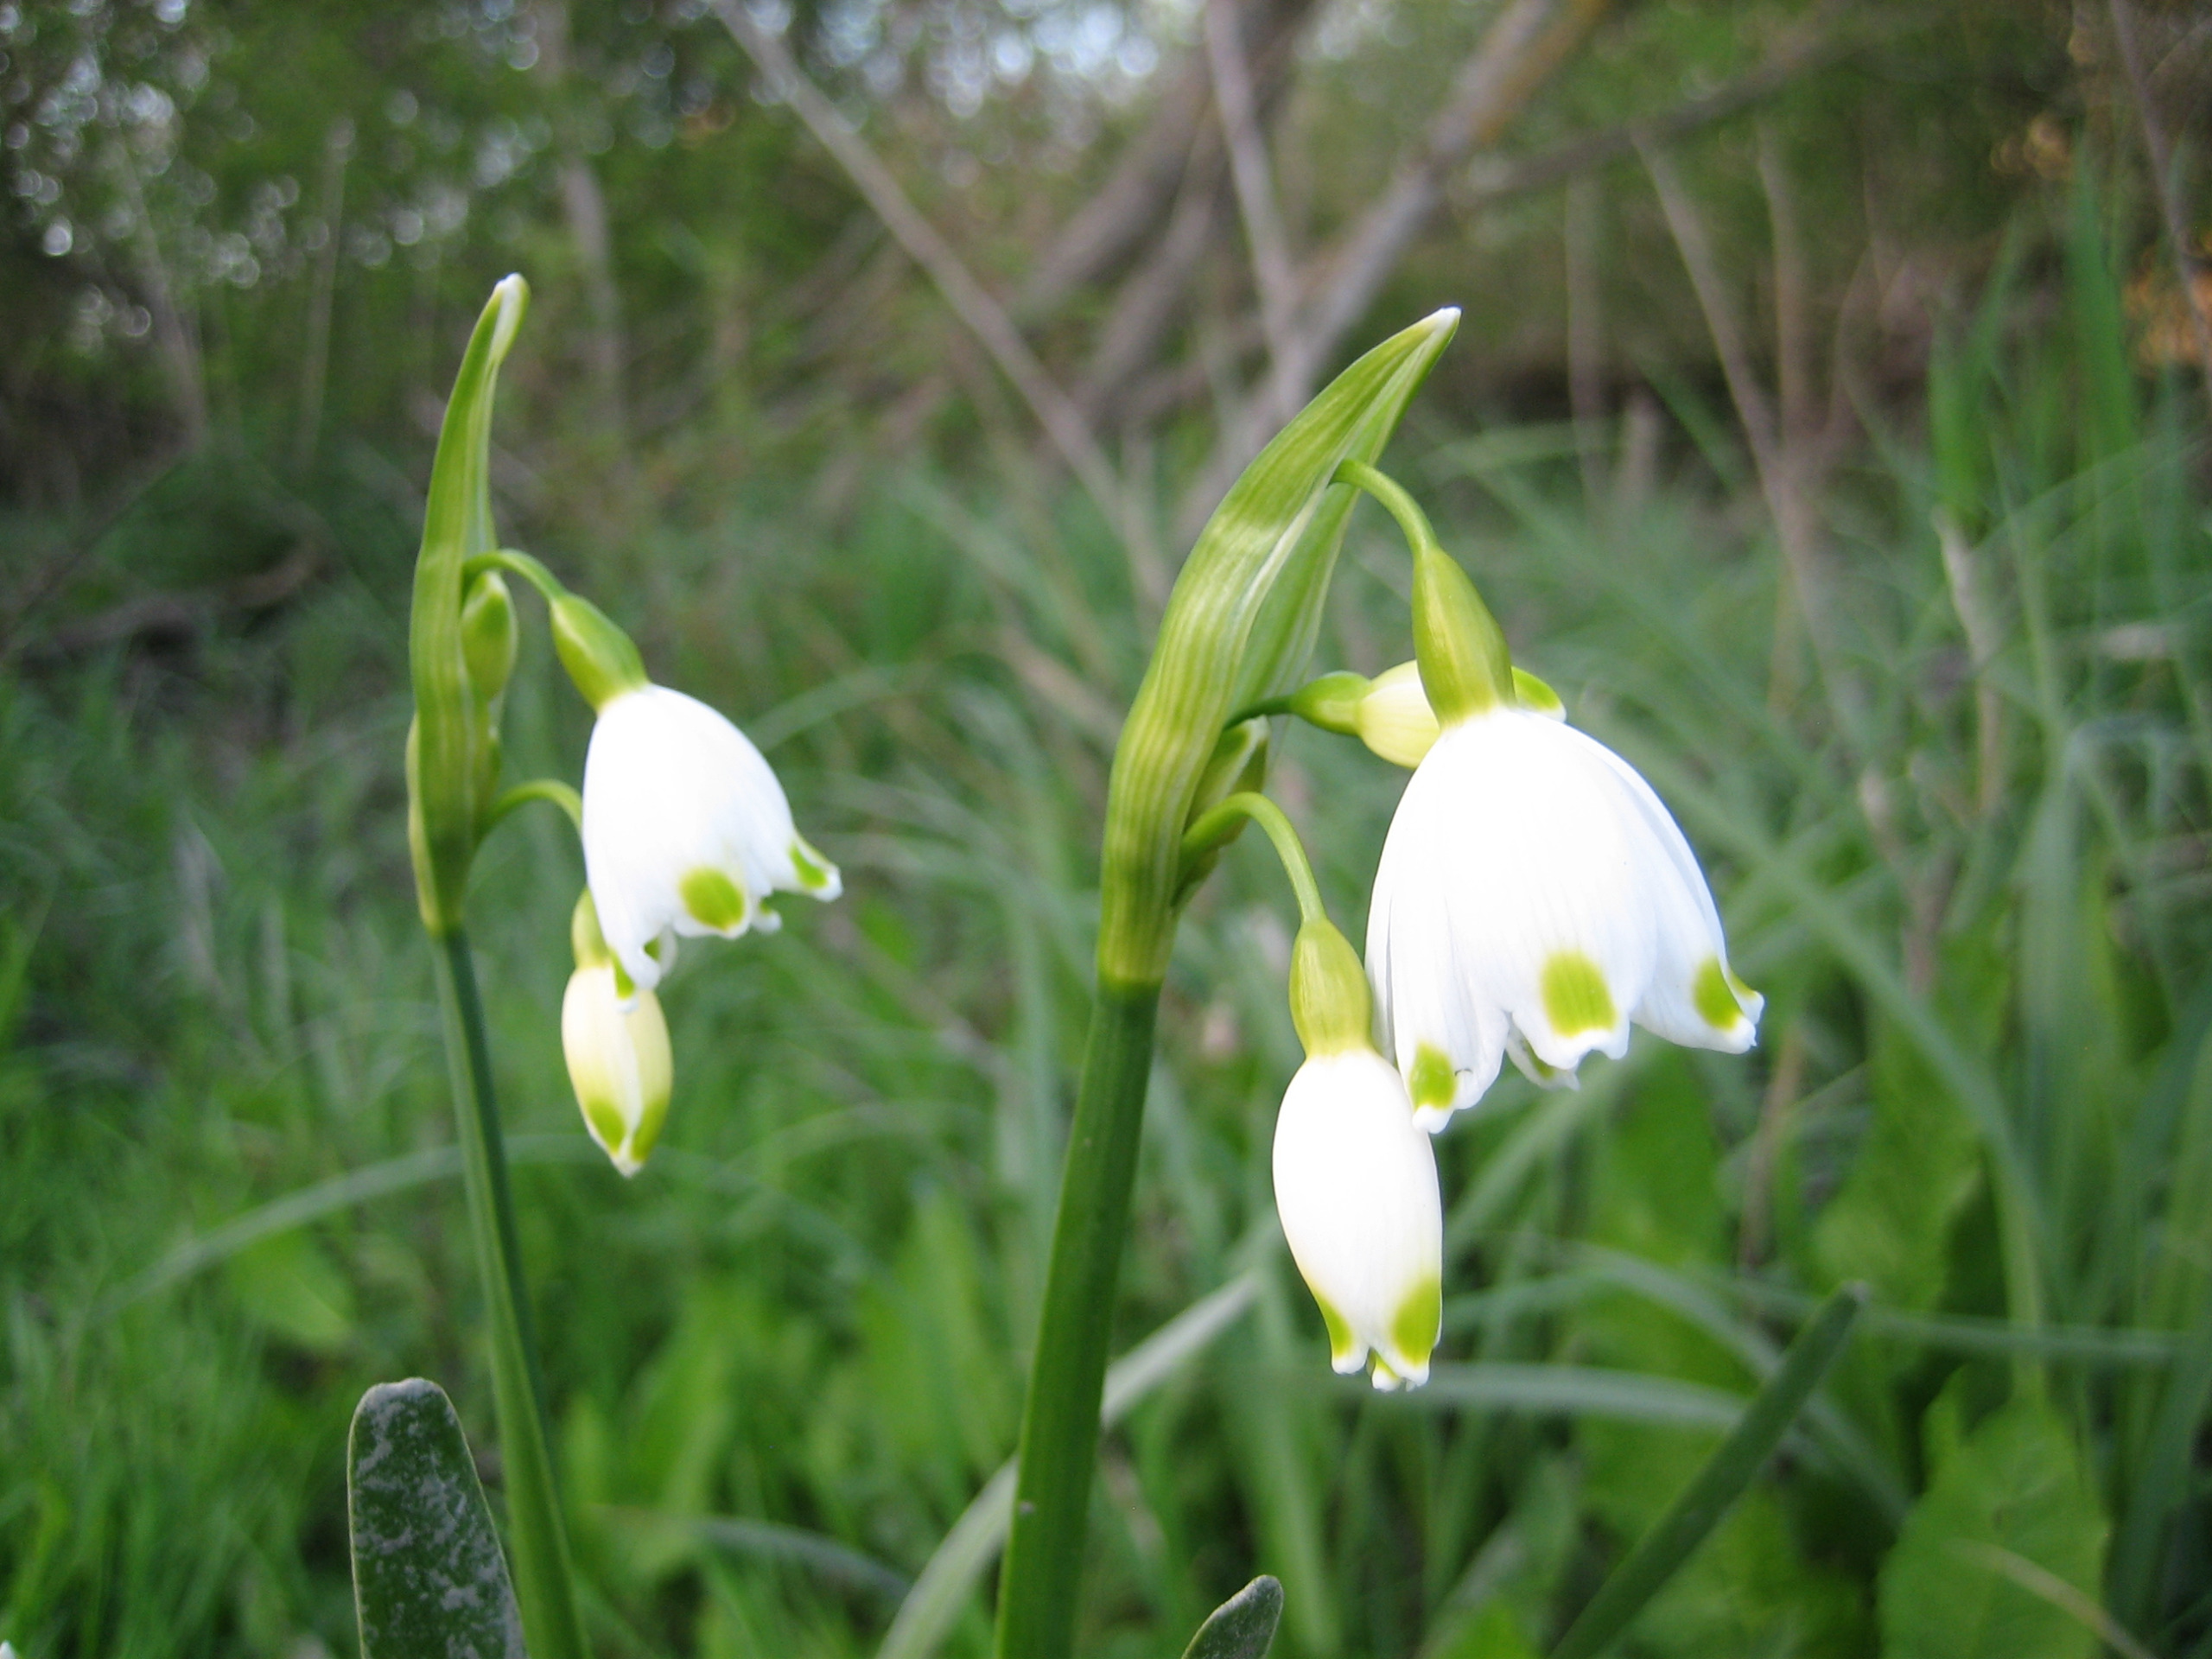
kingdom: Plantae
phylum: Tracheophyta
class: Liliopsida
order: Asparagales
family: Amaryllidaceae
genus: Leucojum
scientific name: Leucojum aestivum
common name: Sommer-hvidblomme
